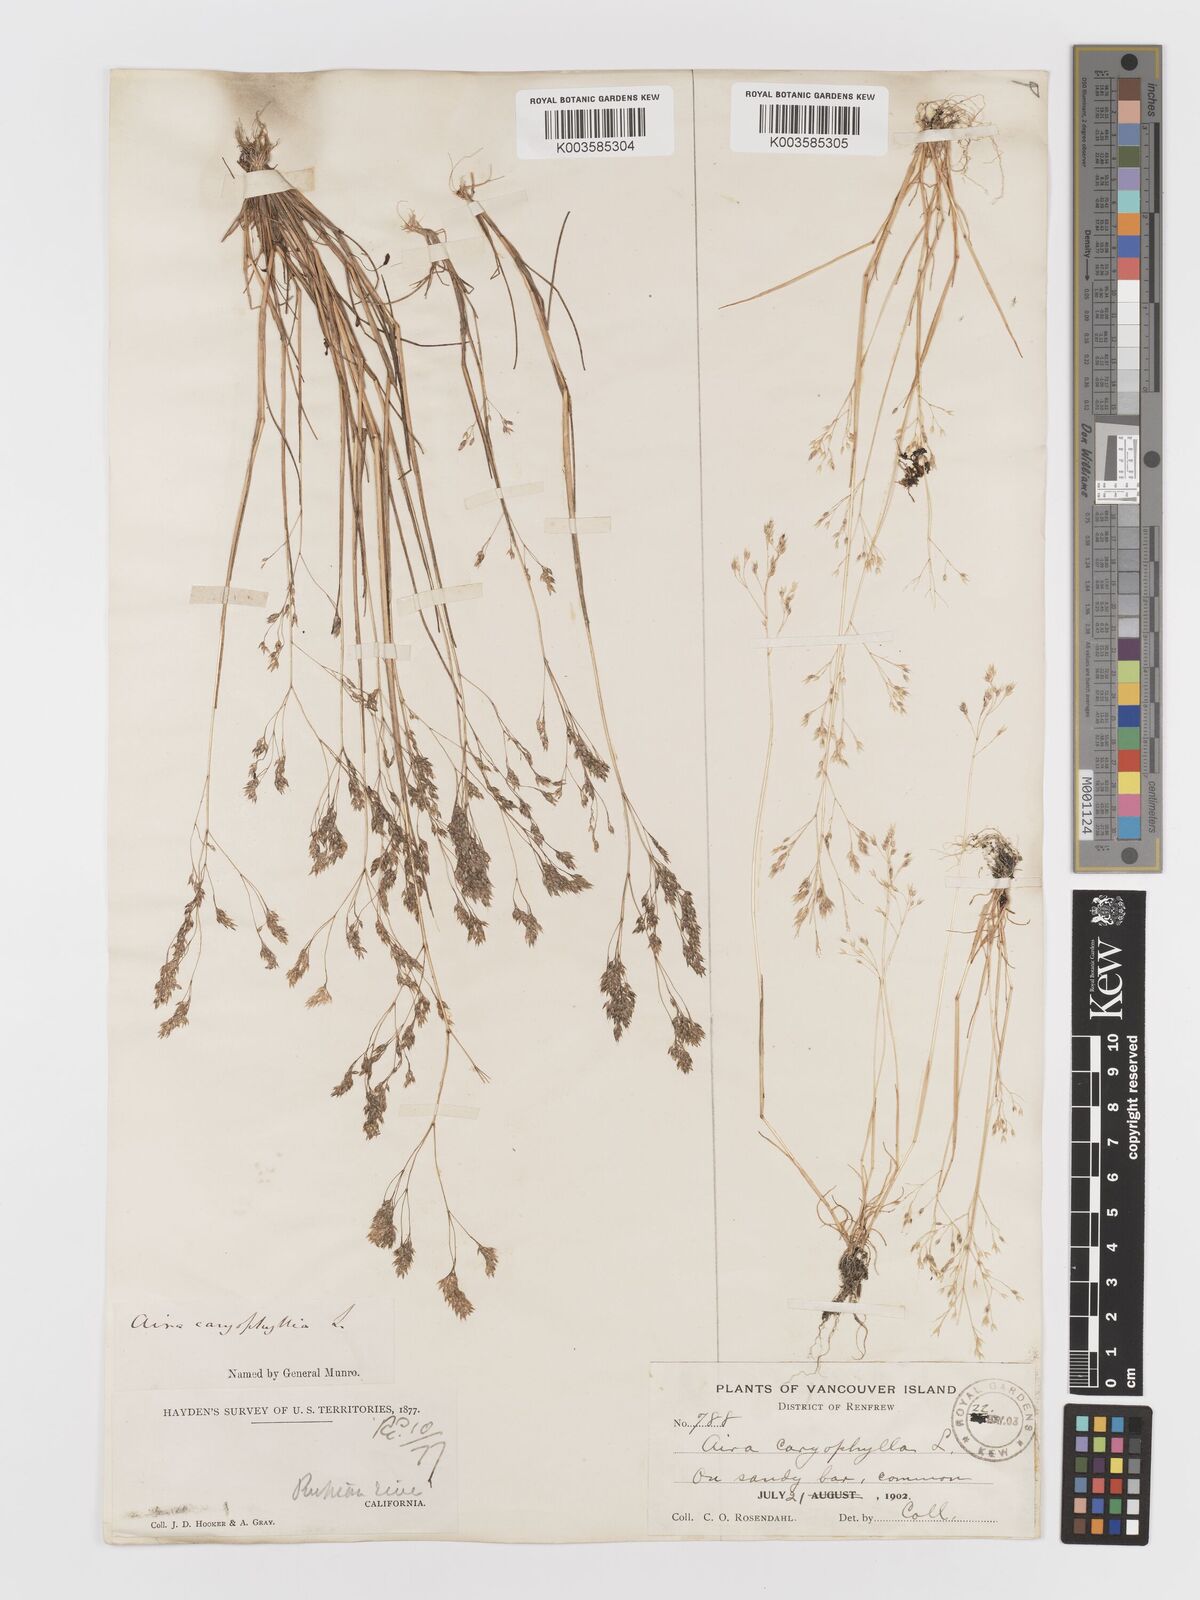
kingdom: Plantae
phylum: Tracheophyta
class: Liliopsida
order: Poales
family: Poaceae
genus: Aira
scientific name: Aira caryophyllea
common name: Silver hairgrass
